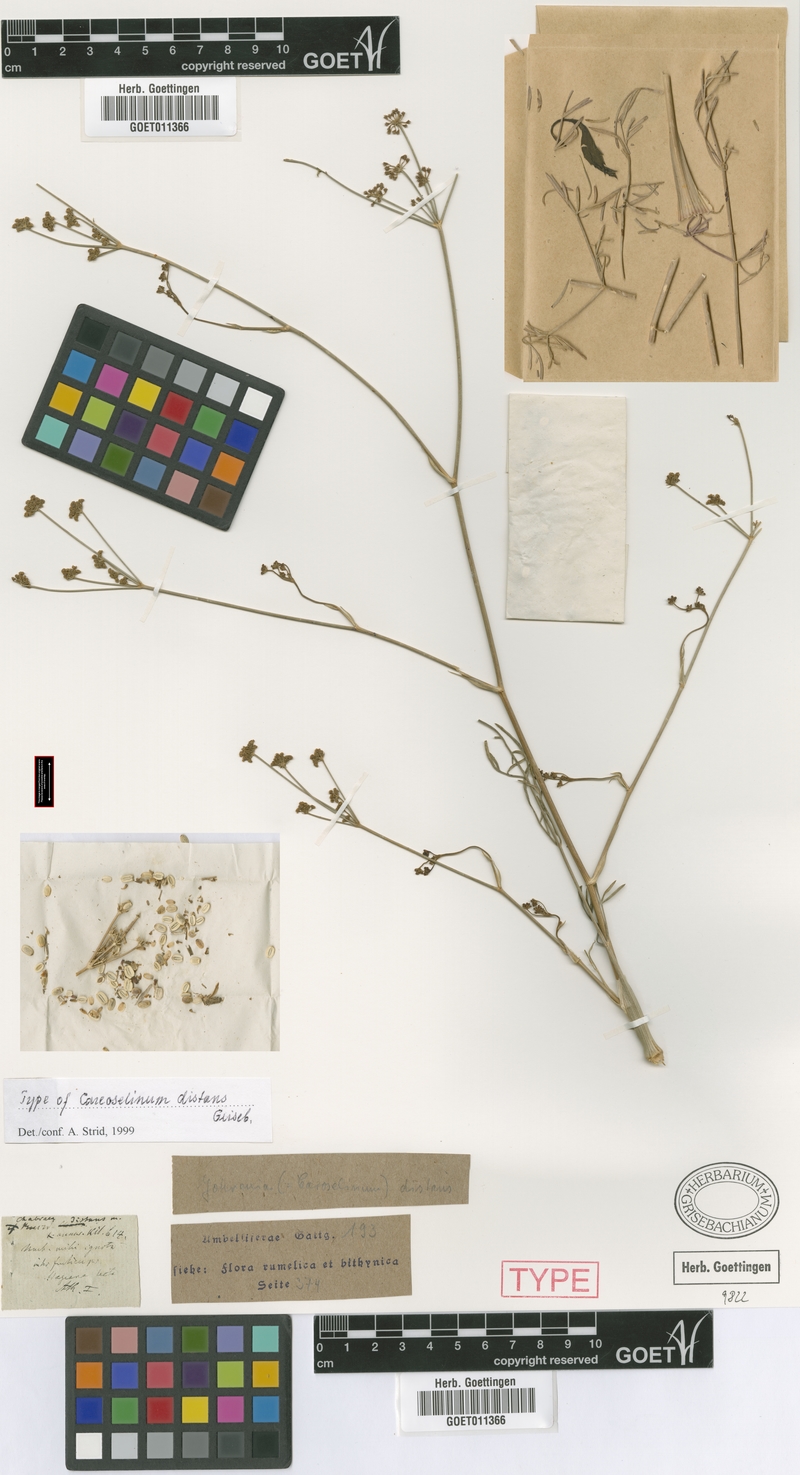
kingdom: Plantae
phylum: Tracheophyta
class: Magnoliopsida
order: Apiales
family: Apiaceae
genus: Johrenia
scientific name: Johrenia distans
